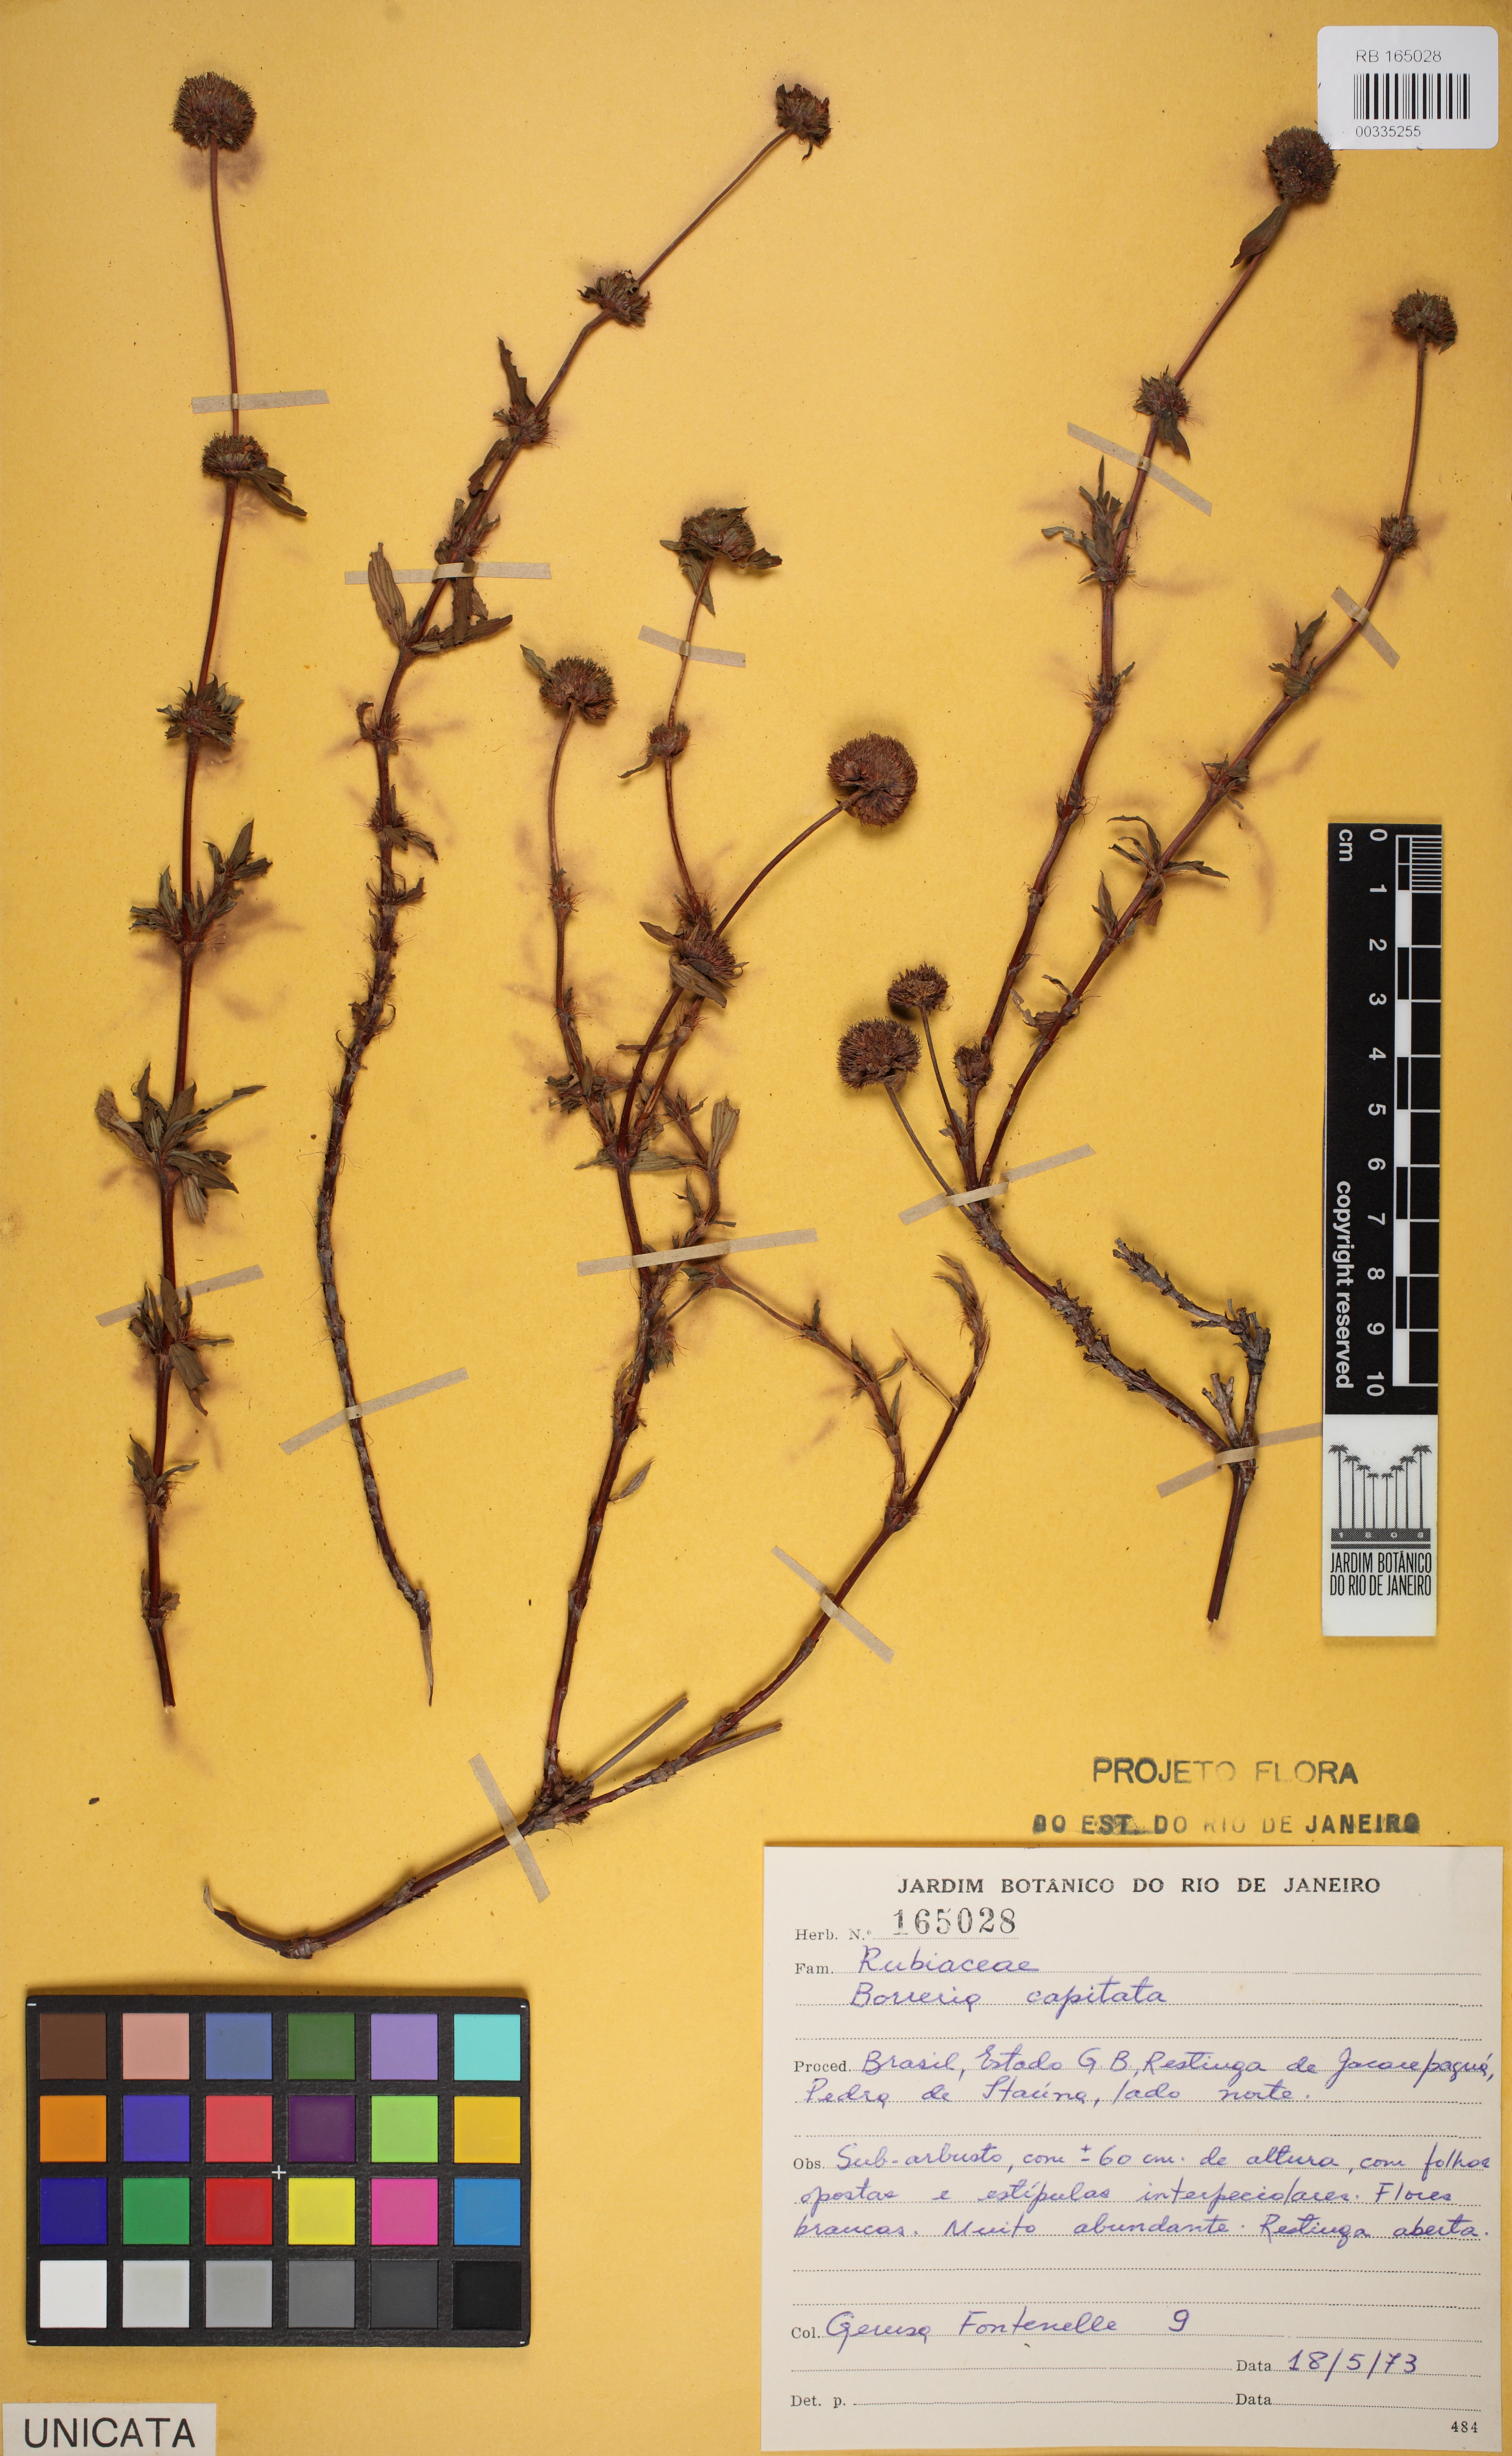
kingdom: Plantae
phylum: Tracheophyta
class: Magnoliopsida
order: Gentianales
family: Rubiaceae
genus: Spermacoce
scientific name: Spermacoce capitata
